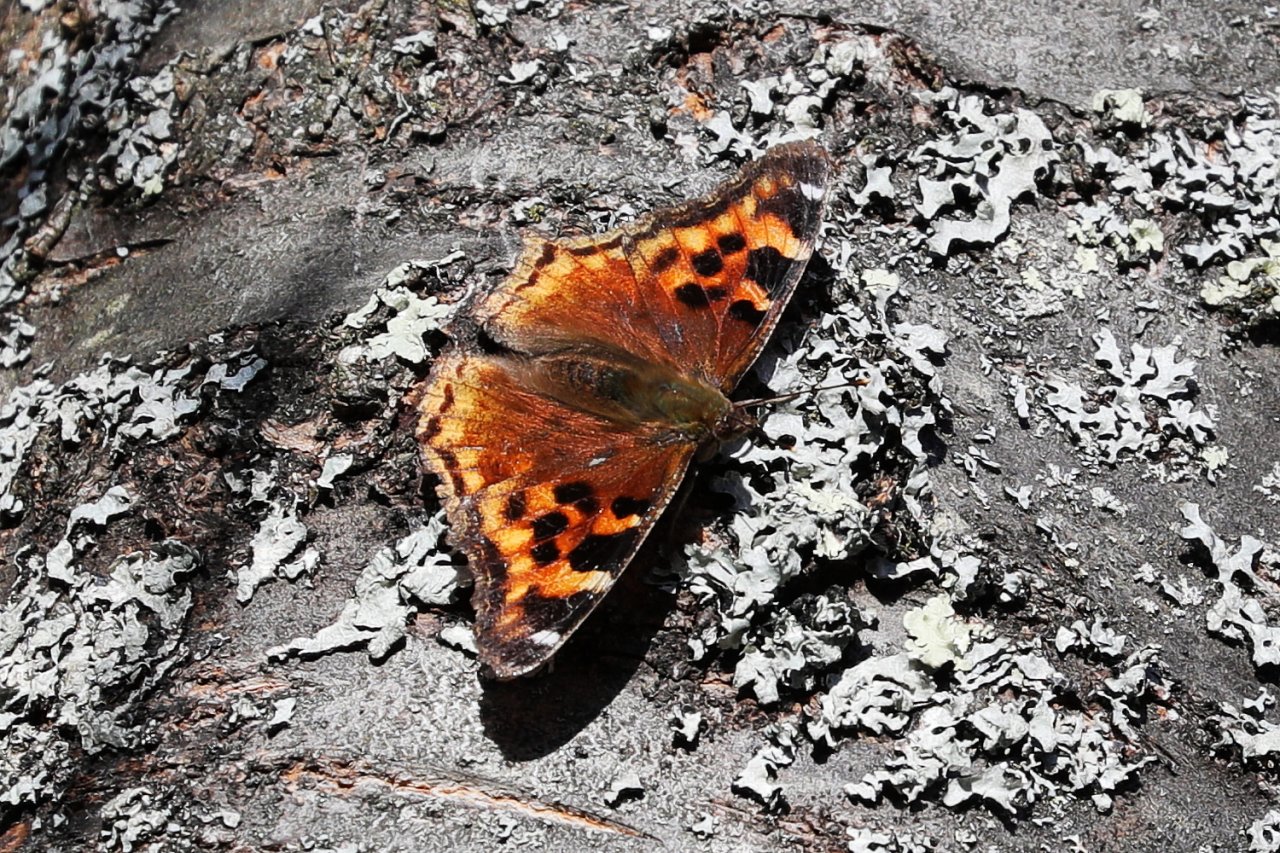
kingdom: Animalia
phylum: Arthropoda
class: Insecta
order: Lepidoptera
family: Nymphalidae
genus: Polygonia
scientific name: Polygonia vaualbum
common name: Compton Tortoiseshell
